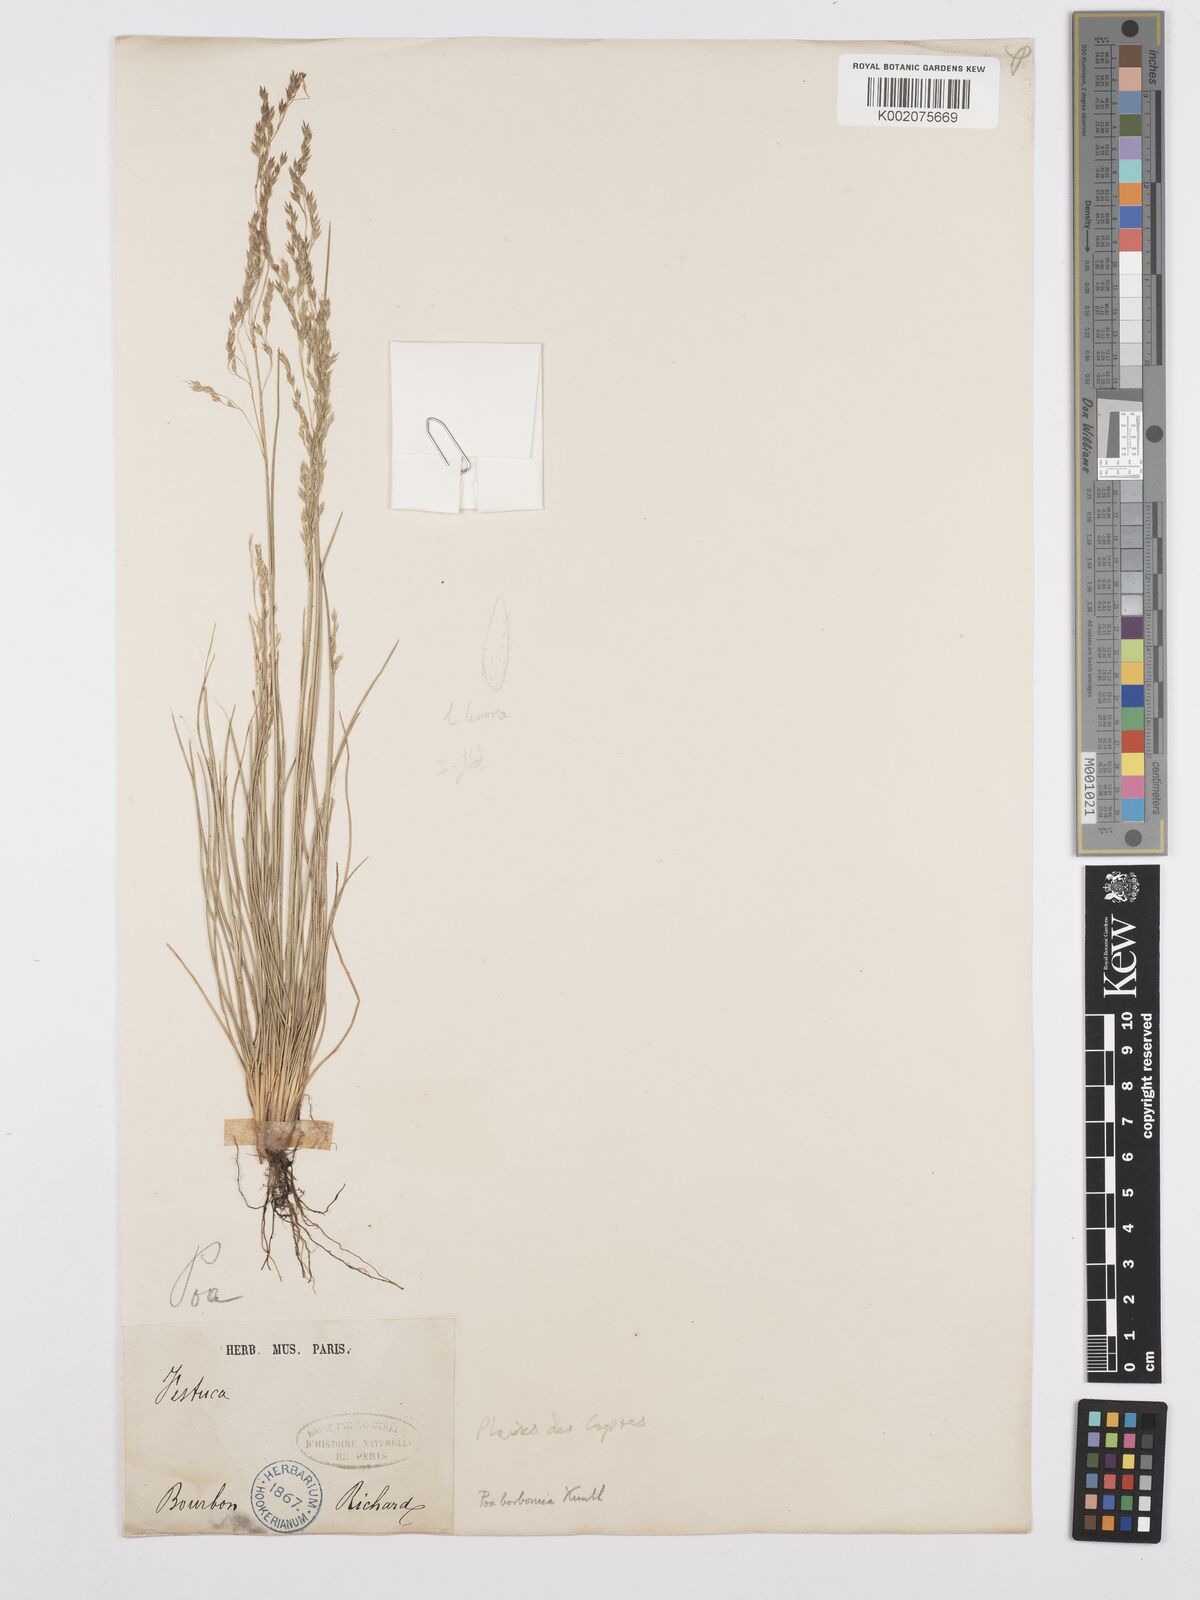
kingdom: Plantae
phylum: Tracheophyta
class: Liliopsida
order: Poales
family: Poaceae
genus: Poa
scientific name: Poa borbonica
